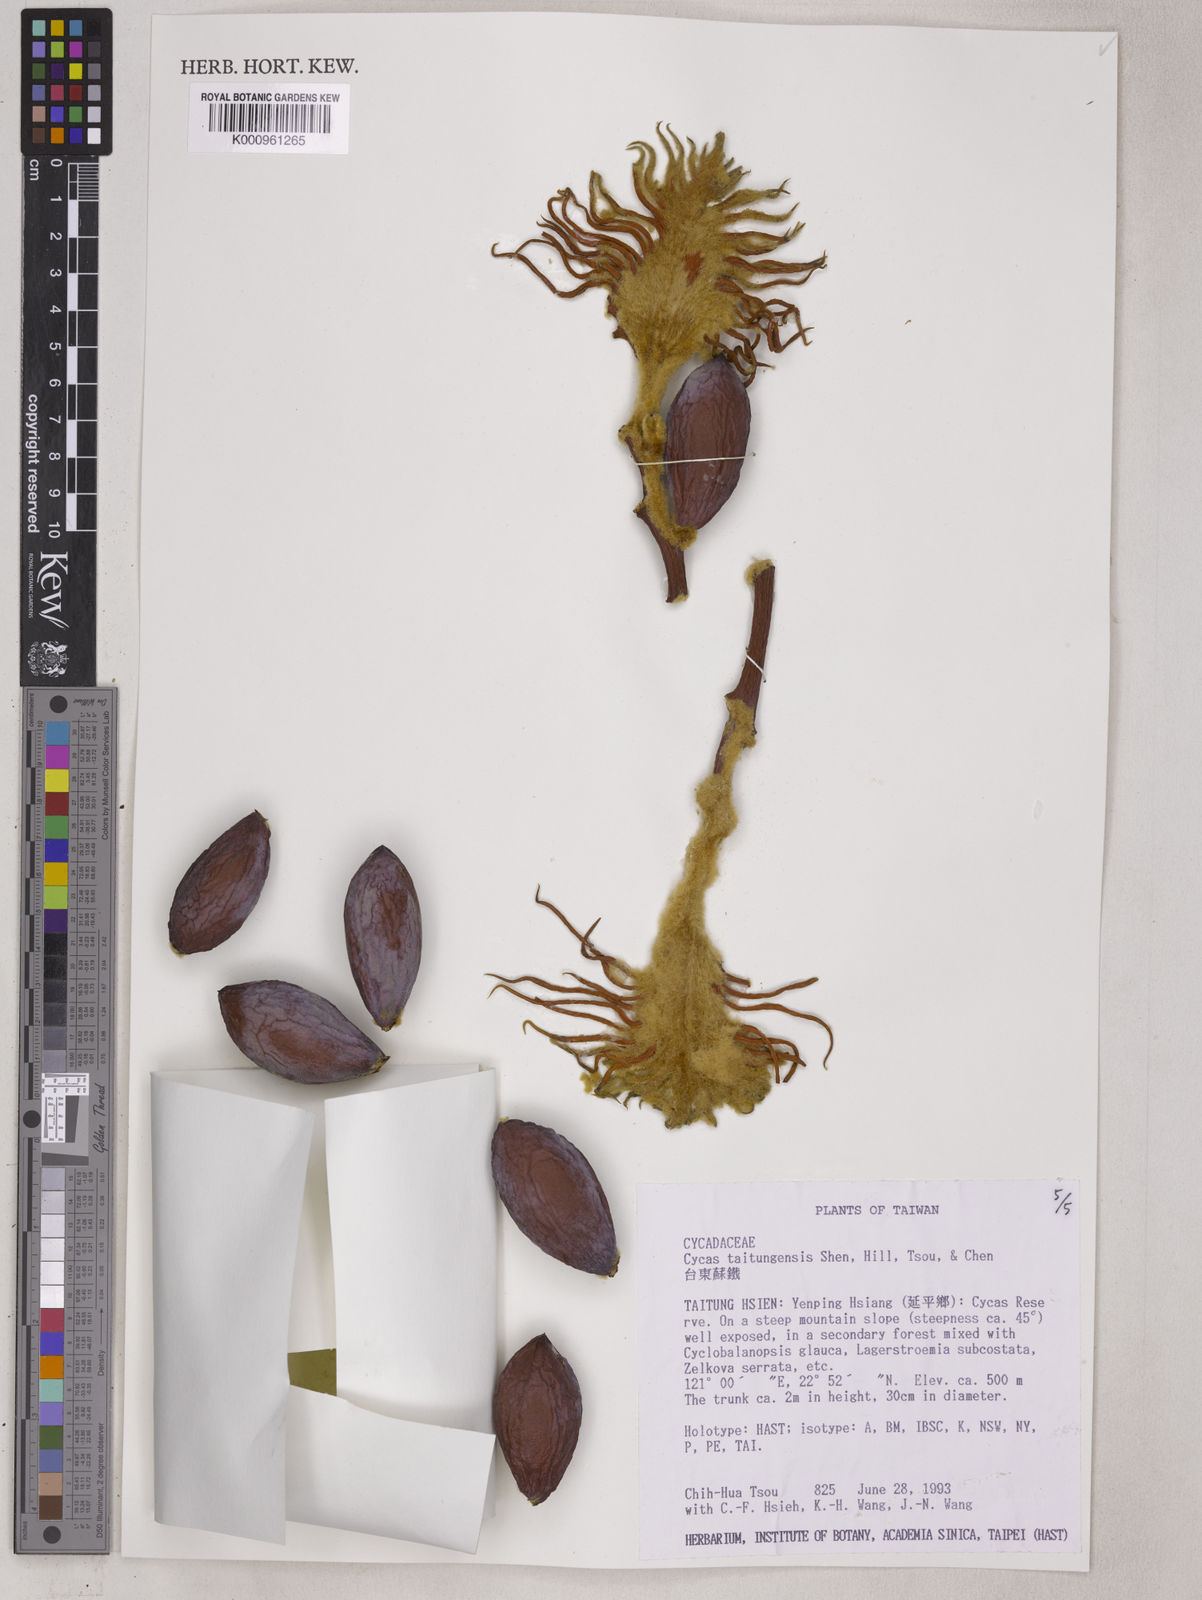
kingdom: Plantae
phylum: Tracheophyta
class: Cycadopsida
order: Cycadales
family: Cycadaceae
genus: Cycas
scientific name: Cycas
